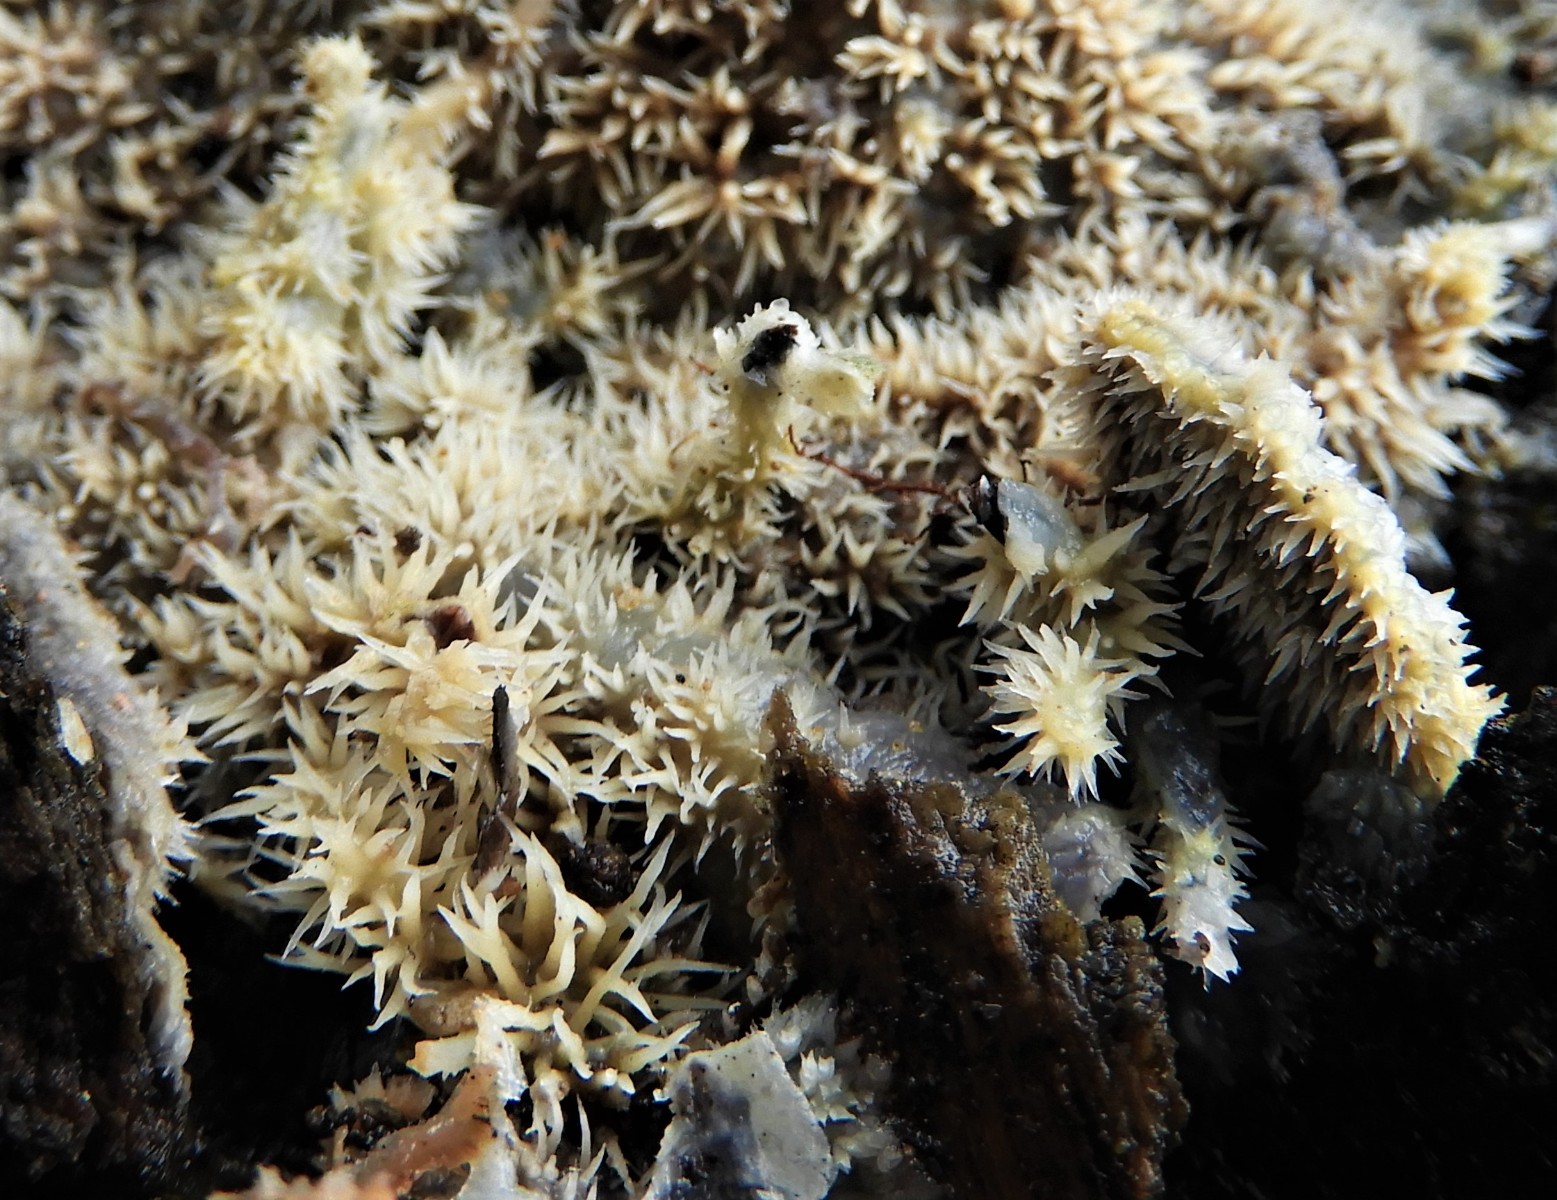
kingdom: Fungi
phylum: Basidiomycota
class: Agaricomycetes
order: Polyporales
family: Meruliaceae
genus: Mycoacia
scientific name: Mycoacia
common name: vokspig
